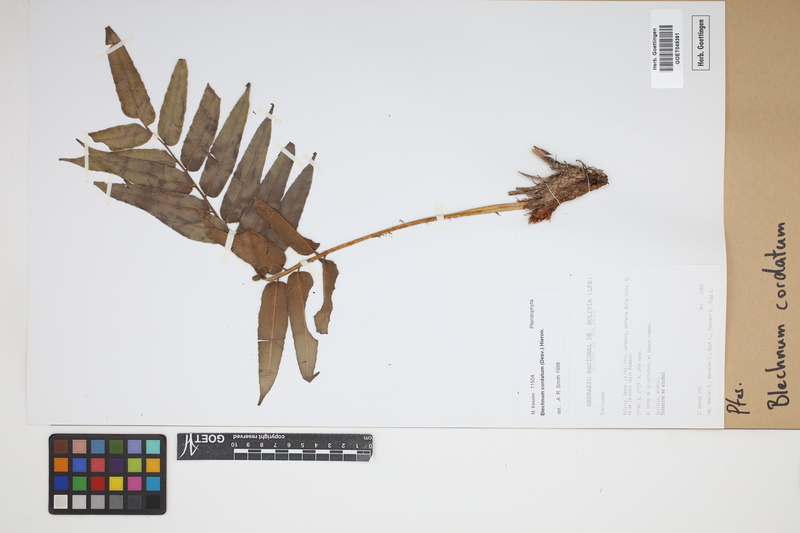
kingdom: Plantae
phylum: Tracheophyta
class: Polypodiopsida
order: Polypodiales
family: Blechnaceae
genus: Parablechnum
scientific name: Parablechnum cordatum
